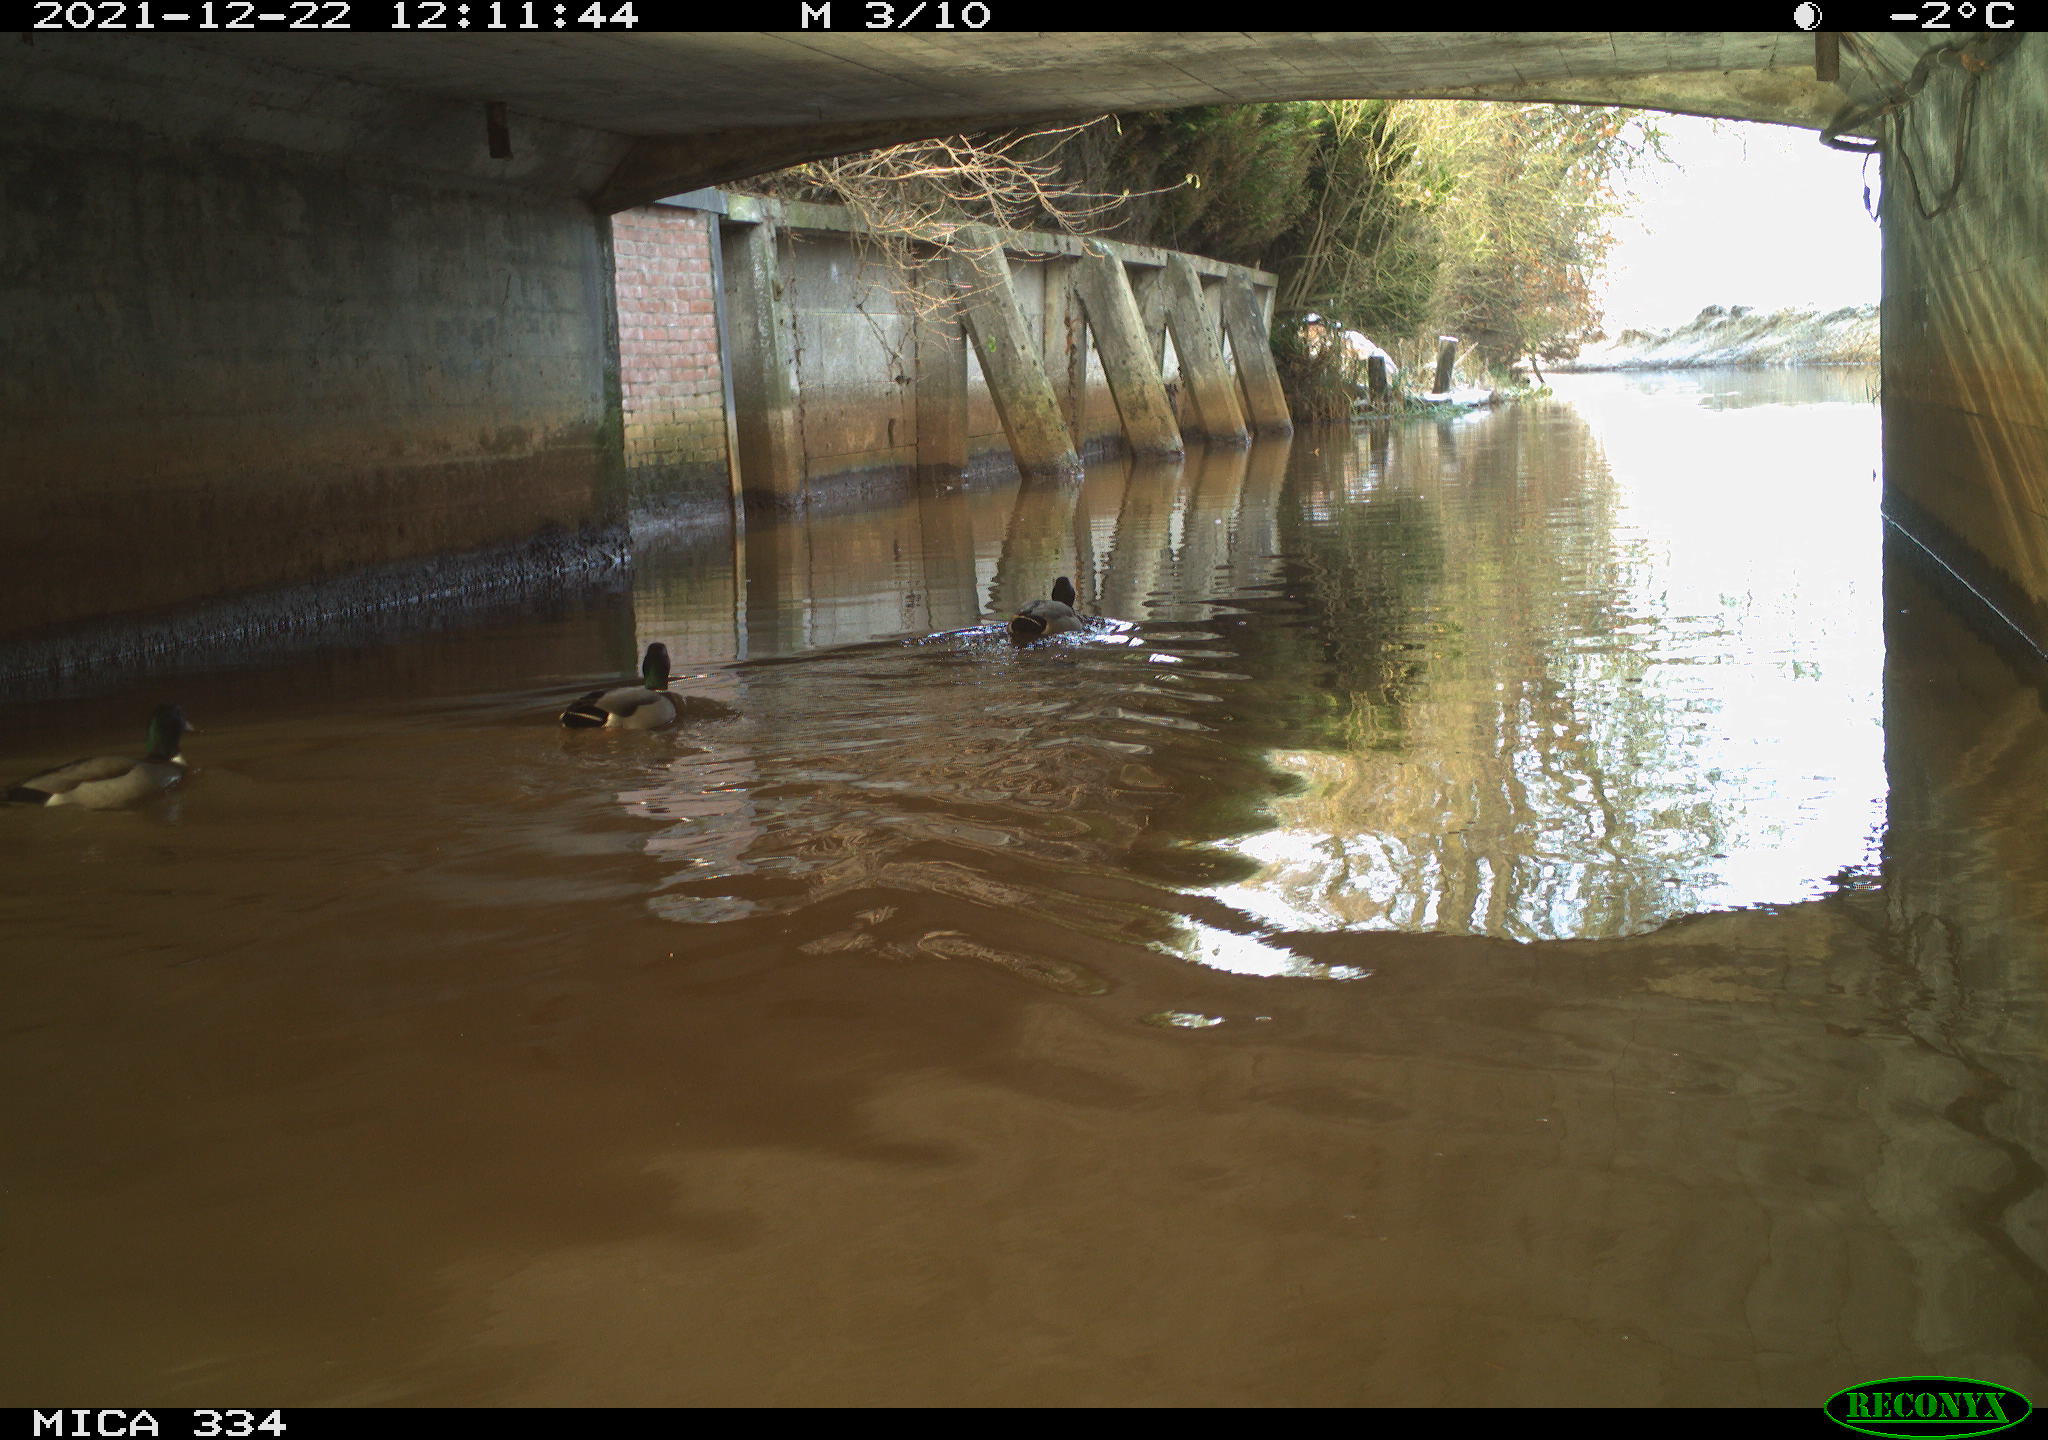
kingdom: Animalia
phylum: Chordata
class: Aves
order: Anseriformes
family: Anatidae
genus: Anas
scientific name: Anas platyrhynchos
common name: Mallard
